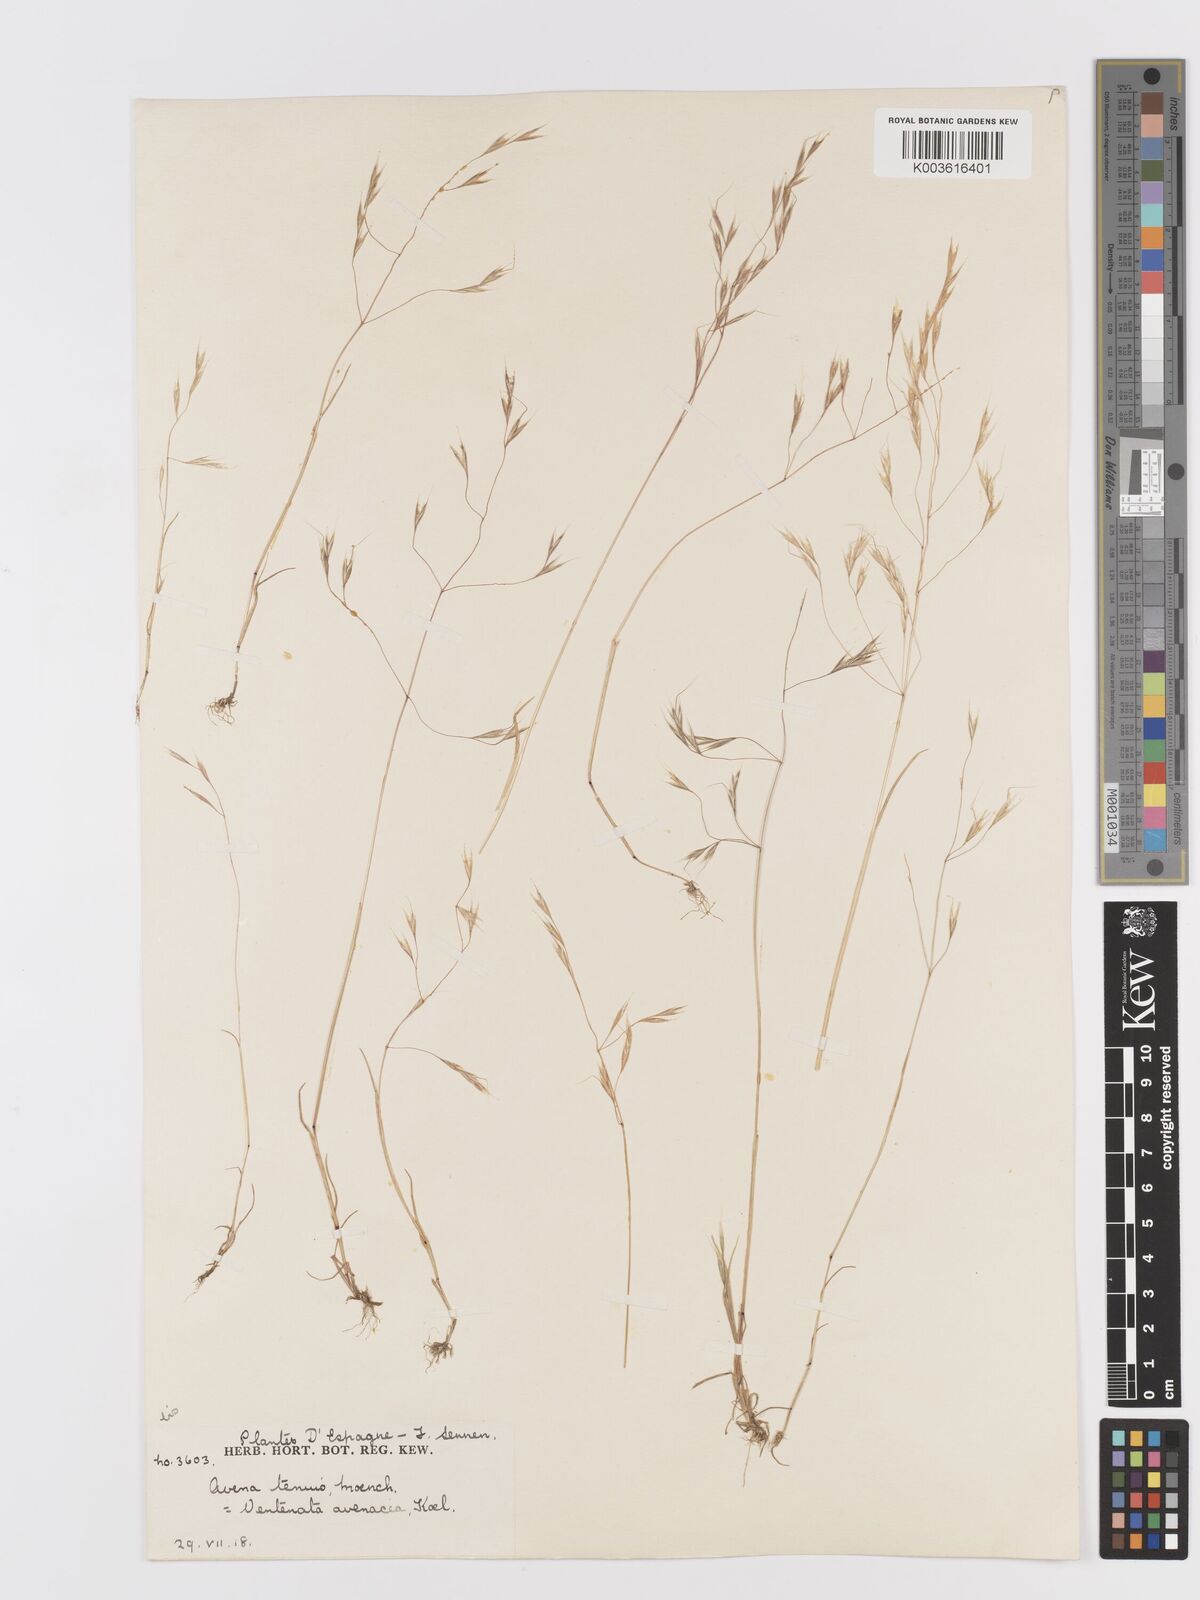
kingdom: Plantae
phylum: Tracheophyta
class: Liliopsida
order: Poales
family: Poaceae
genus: Ventenata
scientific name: Ventenata dubia
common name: North africa grass
